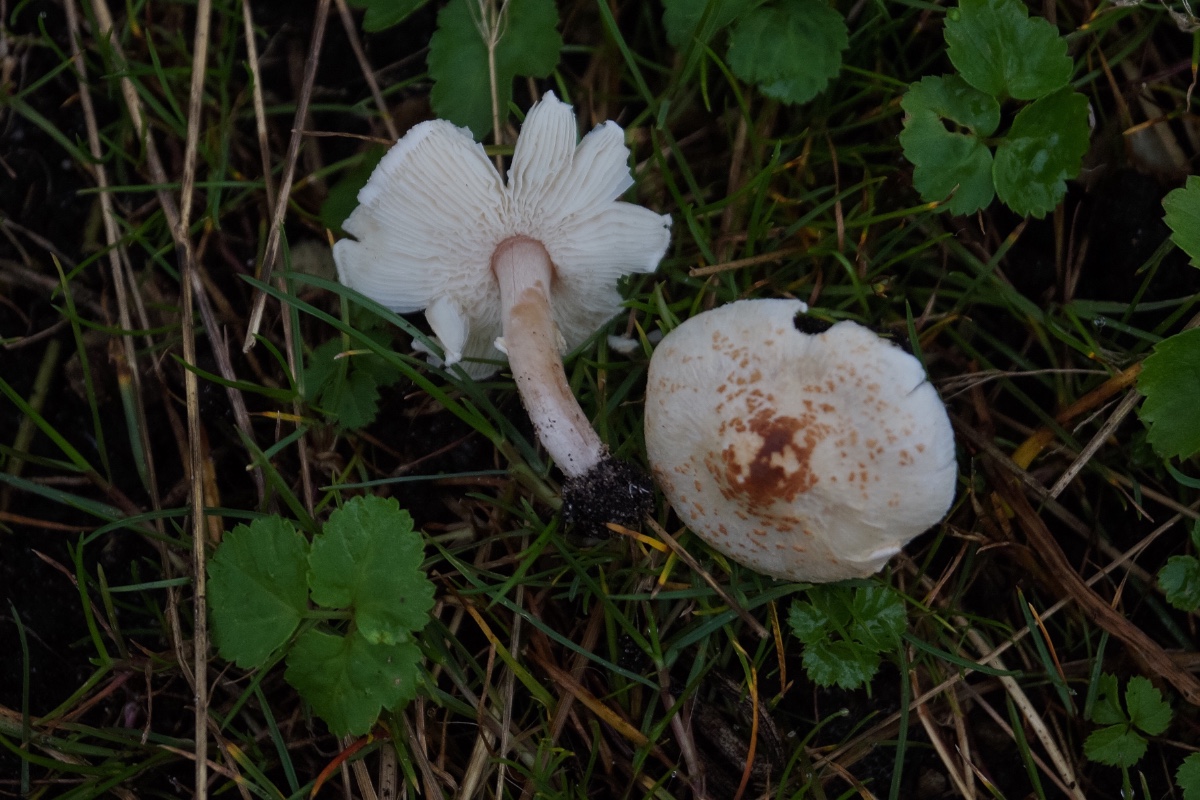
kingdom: Fungi
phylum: Basidiomycota
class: Agaricomycetes
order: Agaricales
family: Agaricaceae
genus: Lepiota
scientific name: Lepiota cristata
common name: stinkende parasolhat
